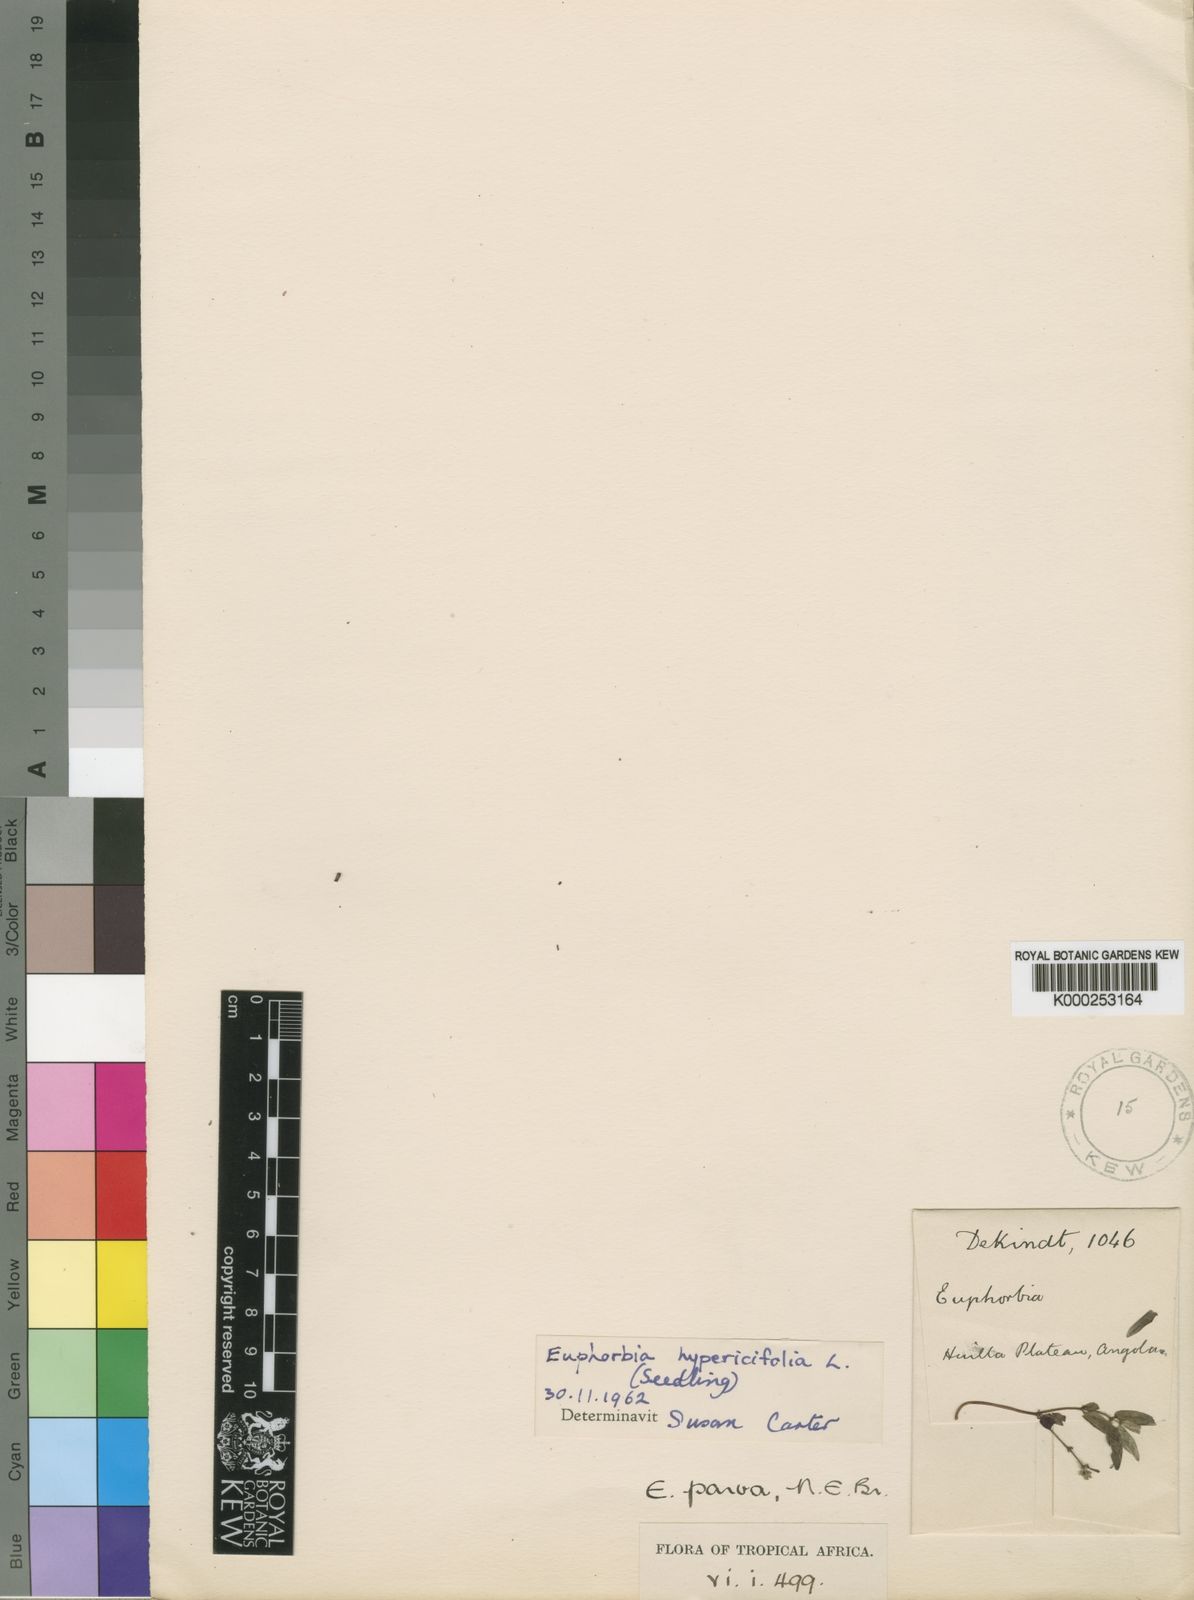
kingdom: Plantae
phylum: Tracheophyta
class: Magnoliopsida
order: Malpighiales
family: Euphorbiaceae
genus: Euphorbia
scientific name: Euphorbia hypericifolia
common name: Graceful sandmat
